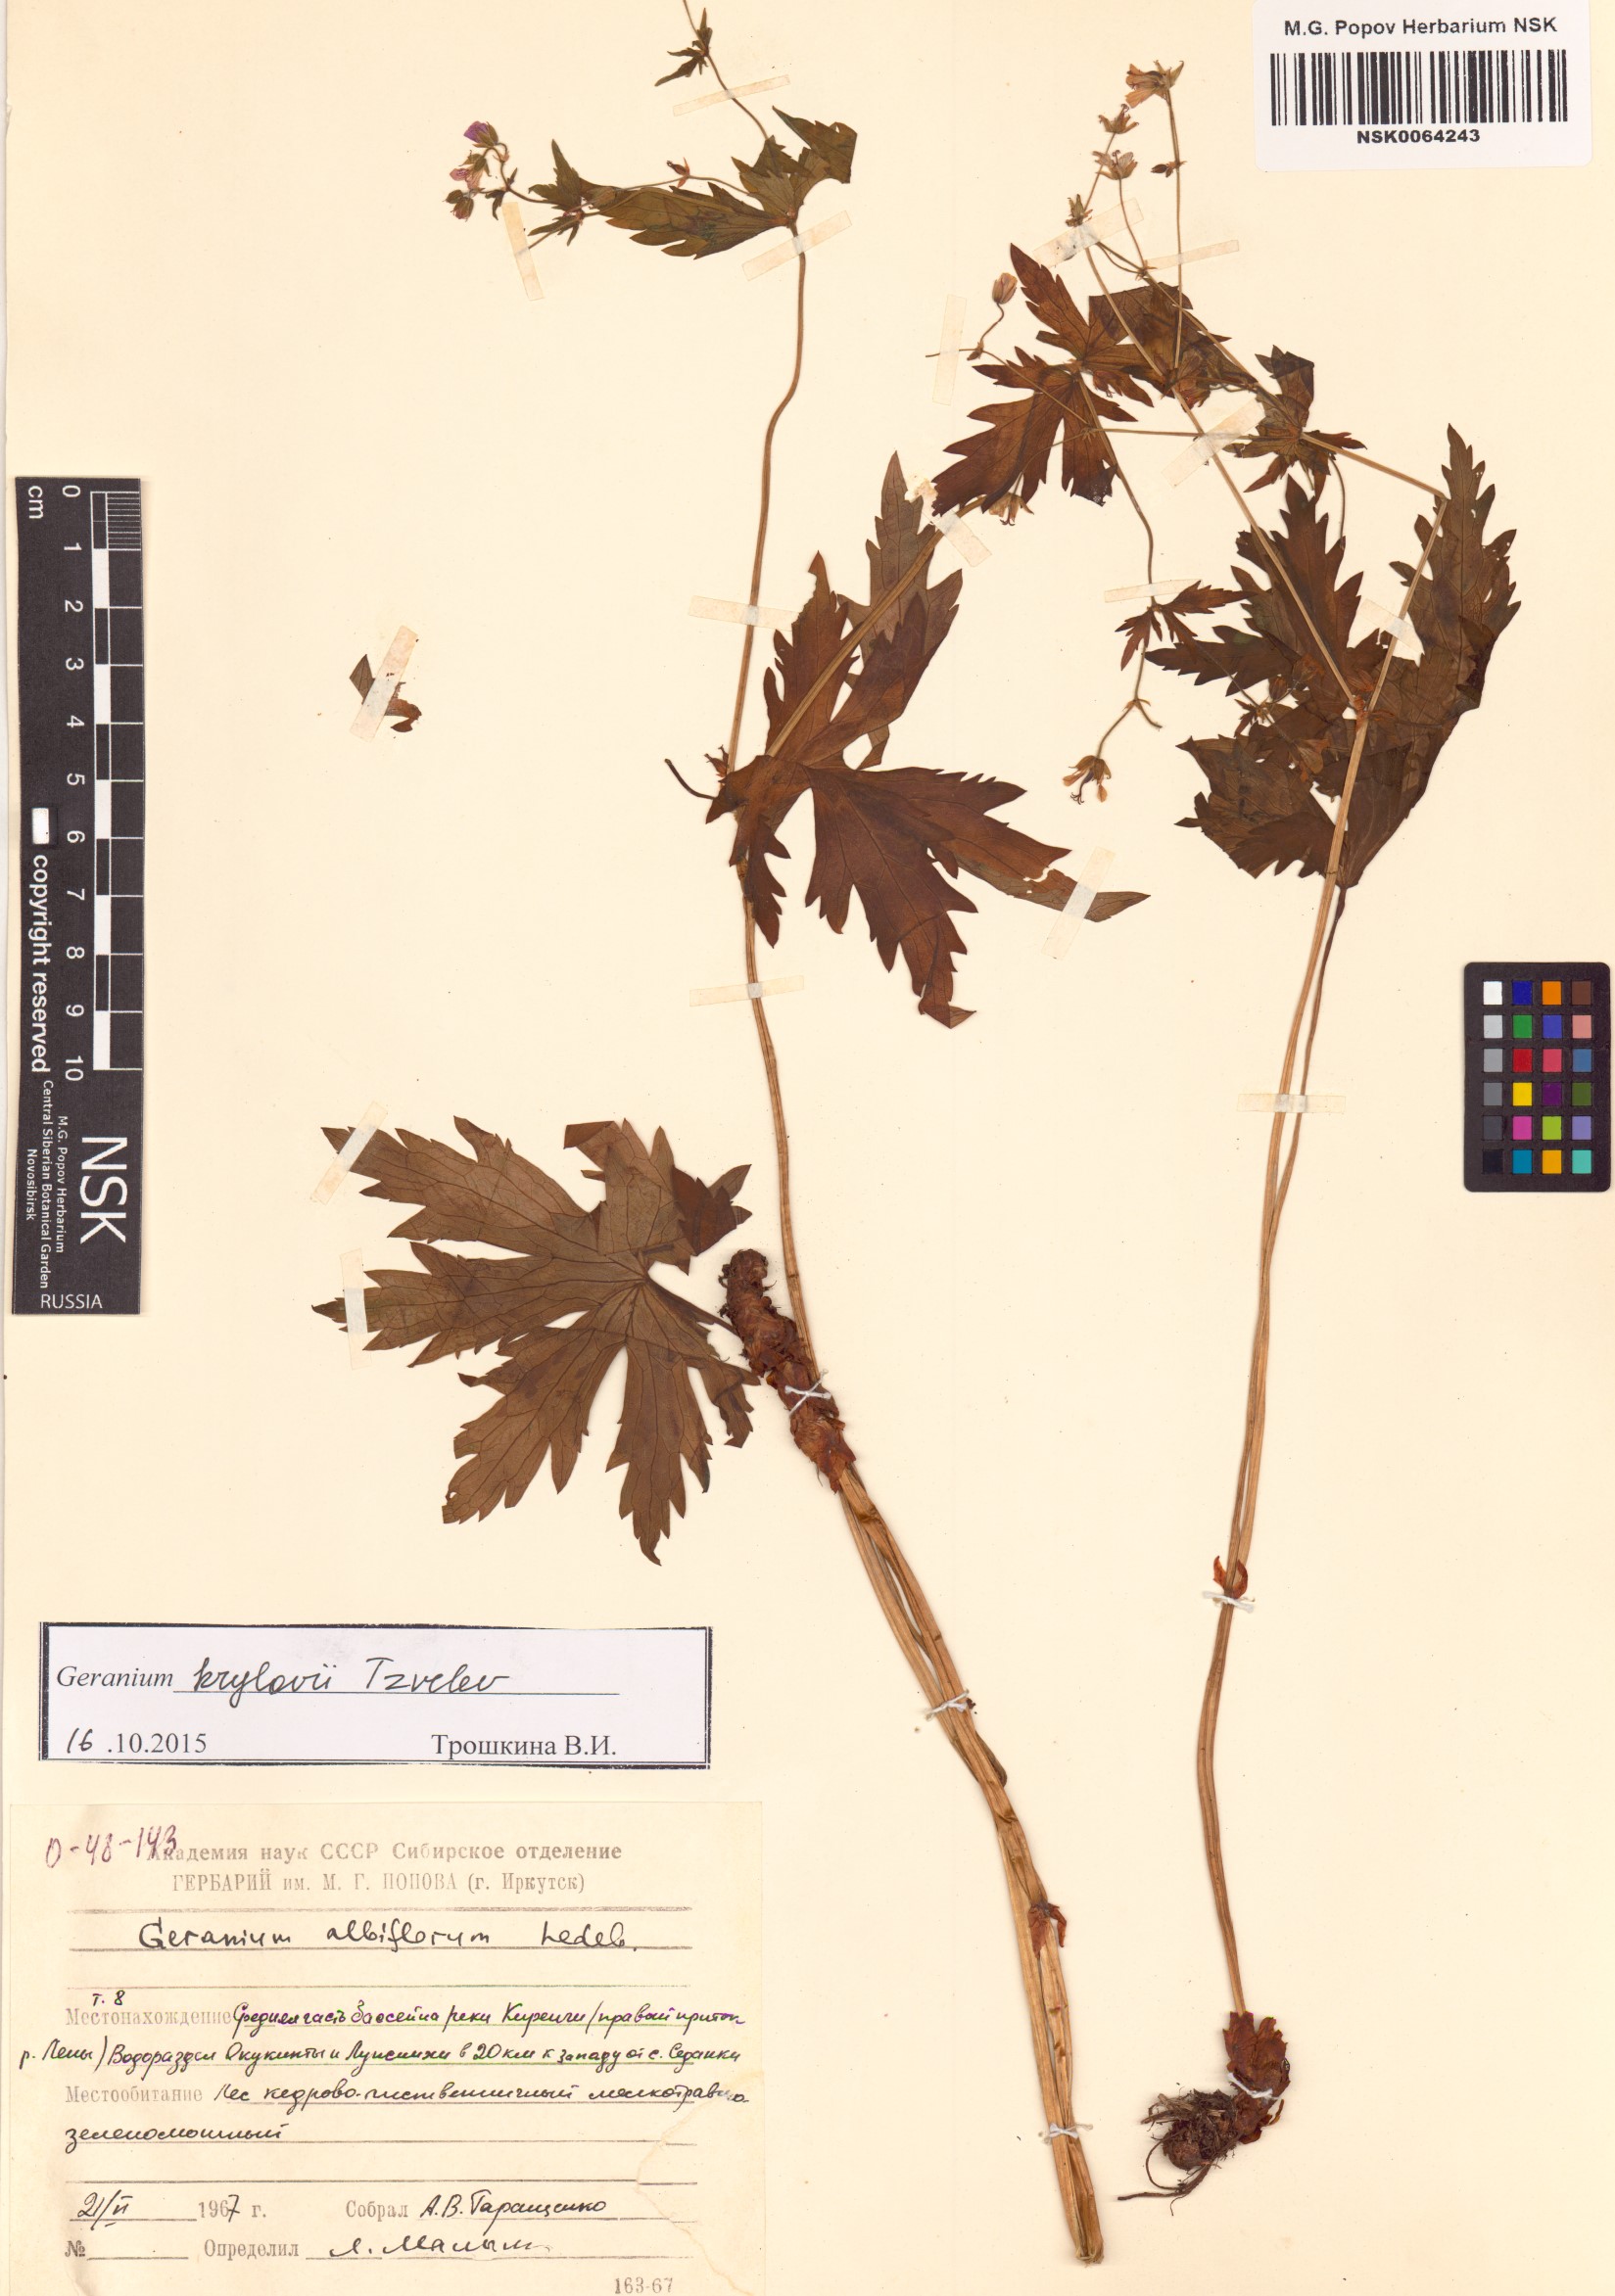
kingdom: Plantae
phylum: Tracheophyta
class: Magnoliopsida
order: Geraniales
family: Geraniaceae
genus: Geranium
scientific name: Geranium sylvaticum
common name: Wood crane's-bill
